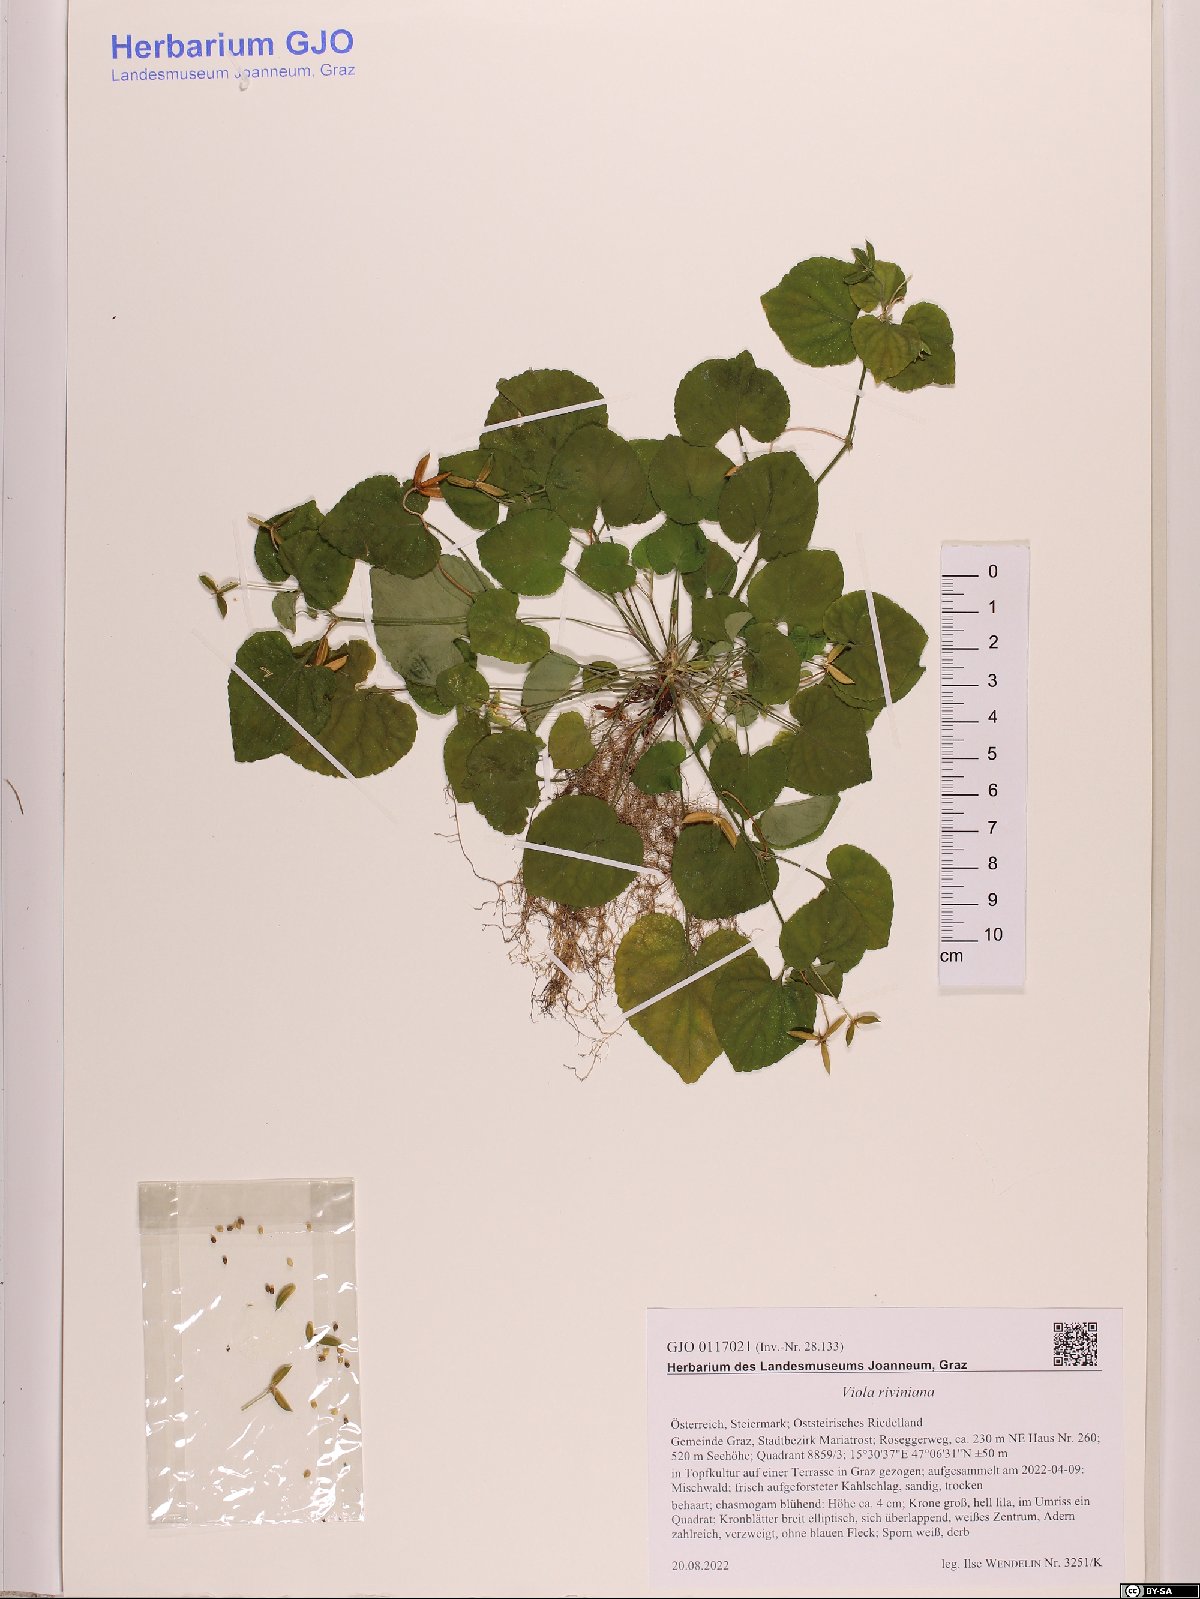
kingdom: Plantae
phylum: Tracheophyta
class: Magnoliopsida
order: Malpighiales
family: Violaceae
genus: Viola
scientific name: Viola riviniana
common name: Common dog-violet
